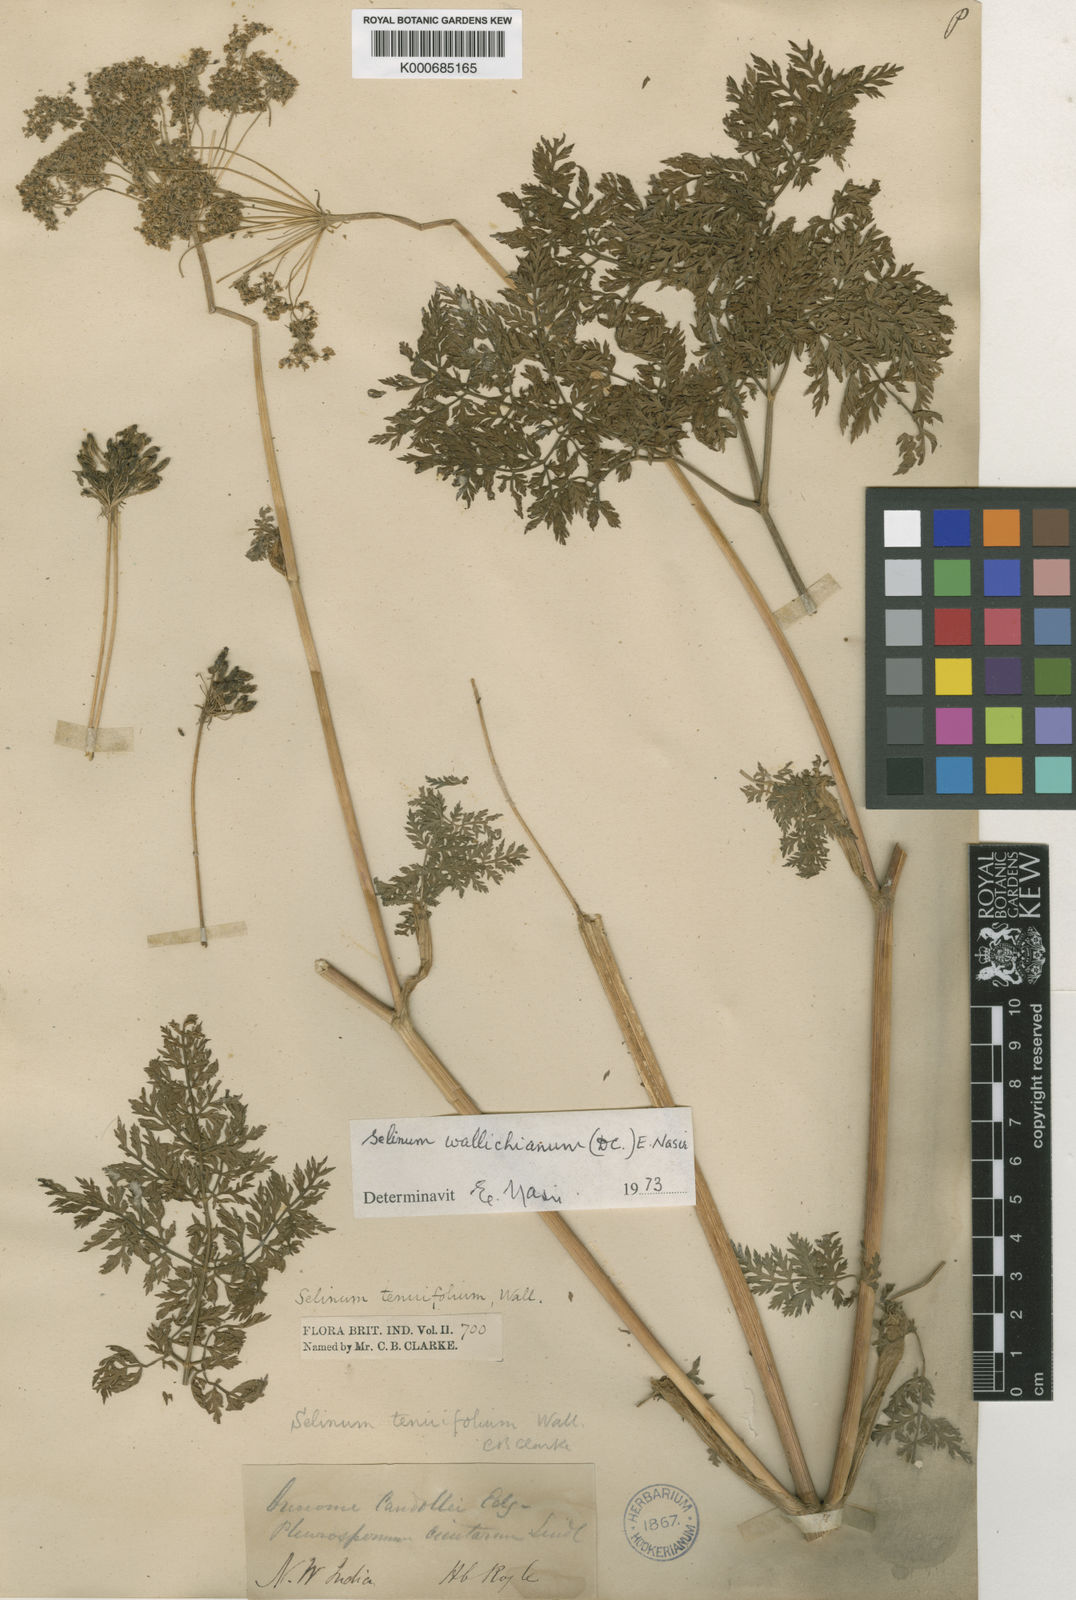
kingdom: Plantae
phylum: Tracheophyta
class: Magnoliopsida
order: Apiales
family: Apiaceae
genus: Selinum
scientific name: Selinum
